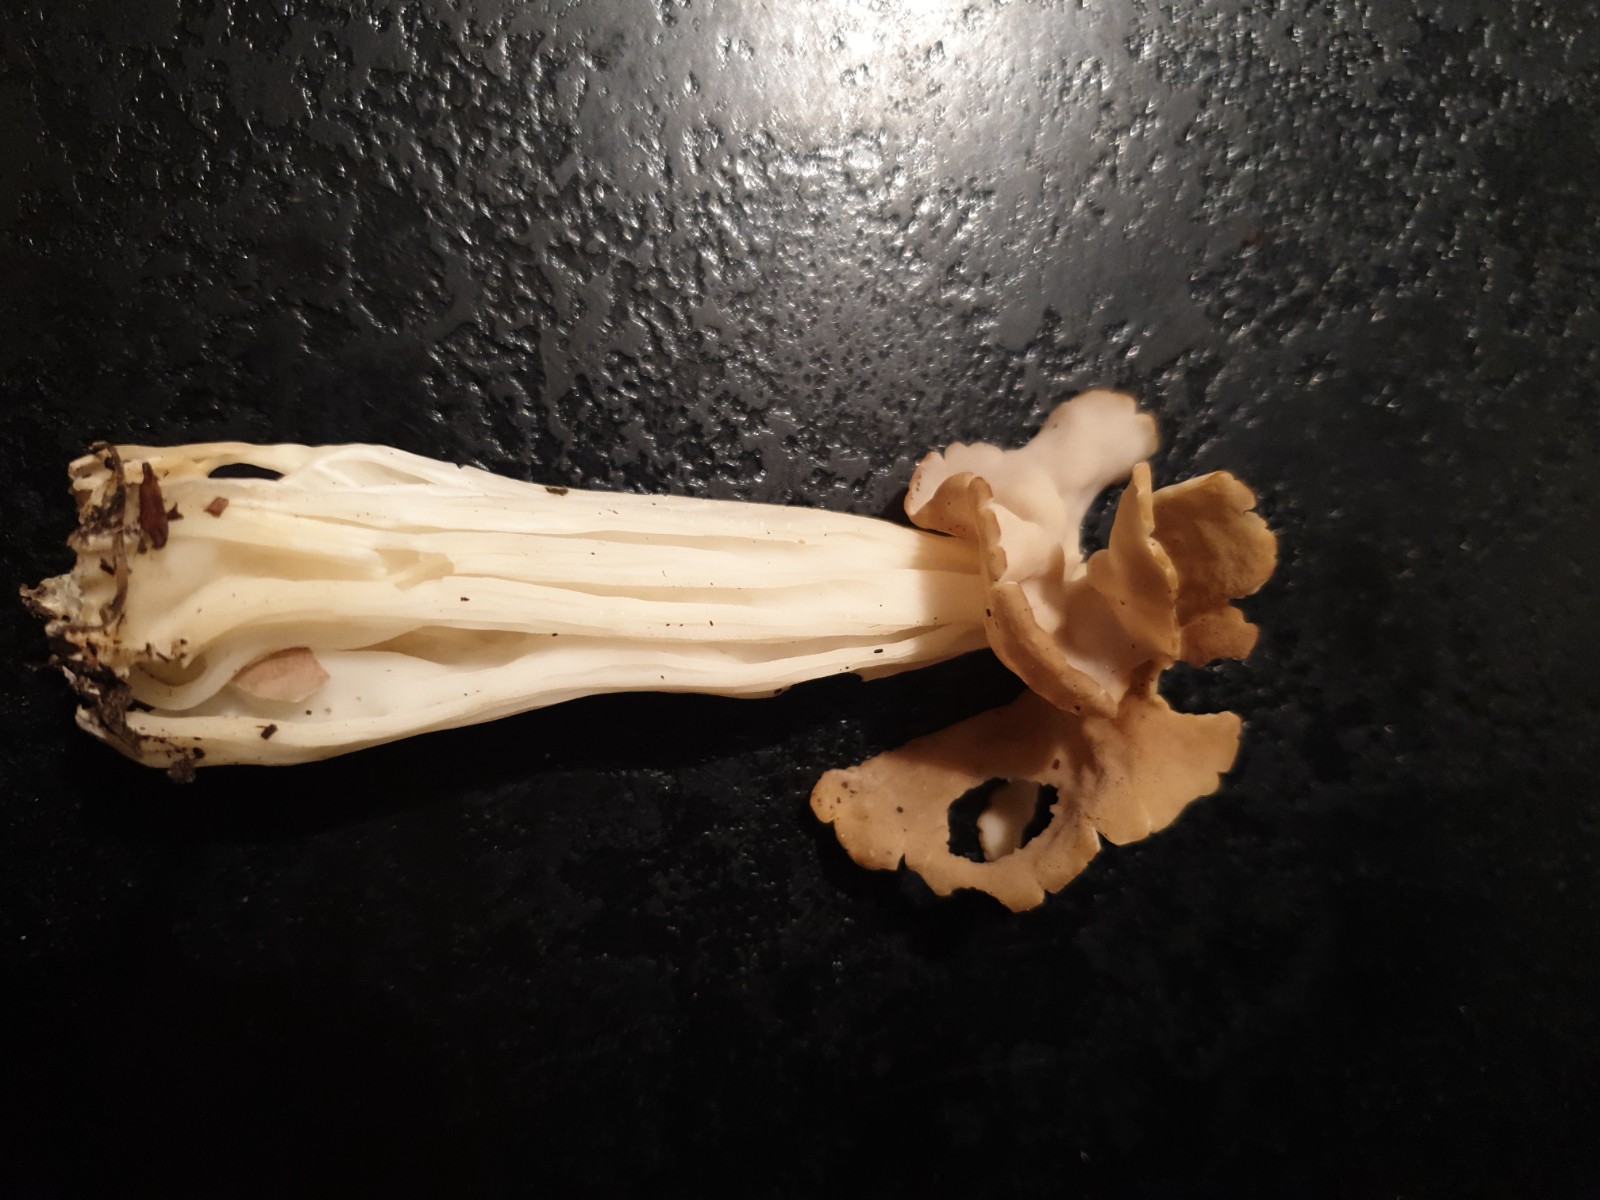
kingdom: Fungi
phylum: Ascomycota
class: Pezizomycetes
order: Pezizales
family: Helvellaceae
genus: Helvella
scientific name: Helvella crispa
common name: kruset foldhat
